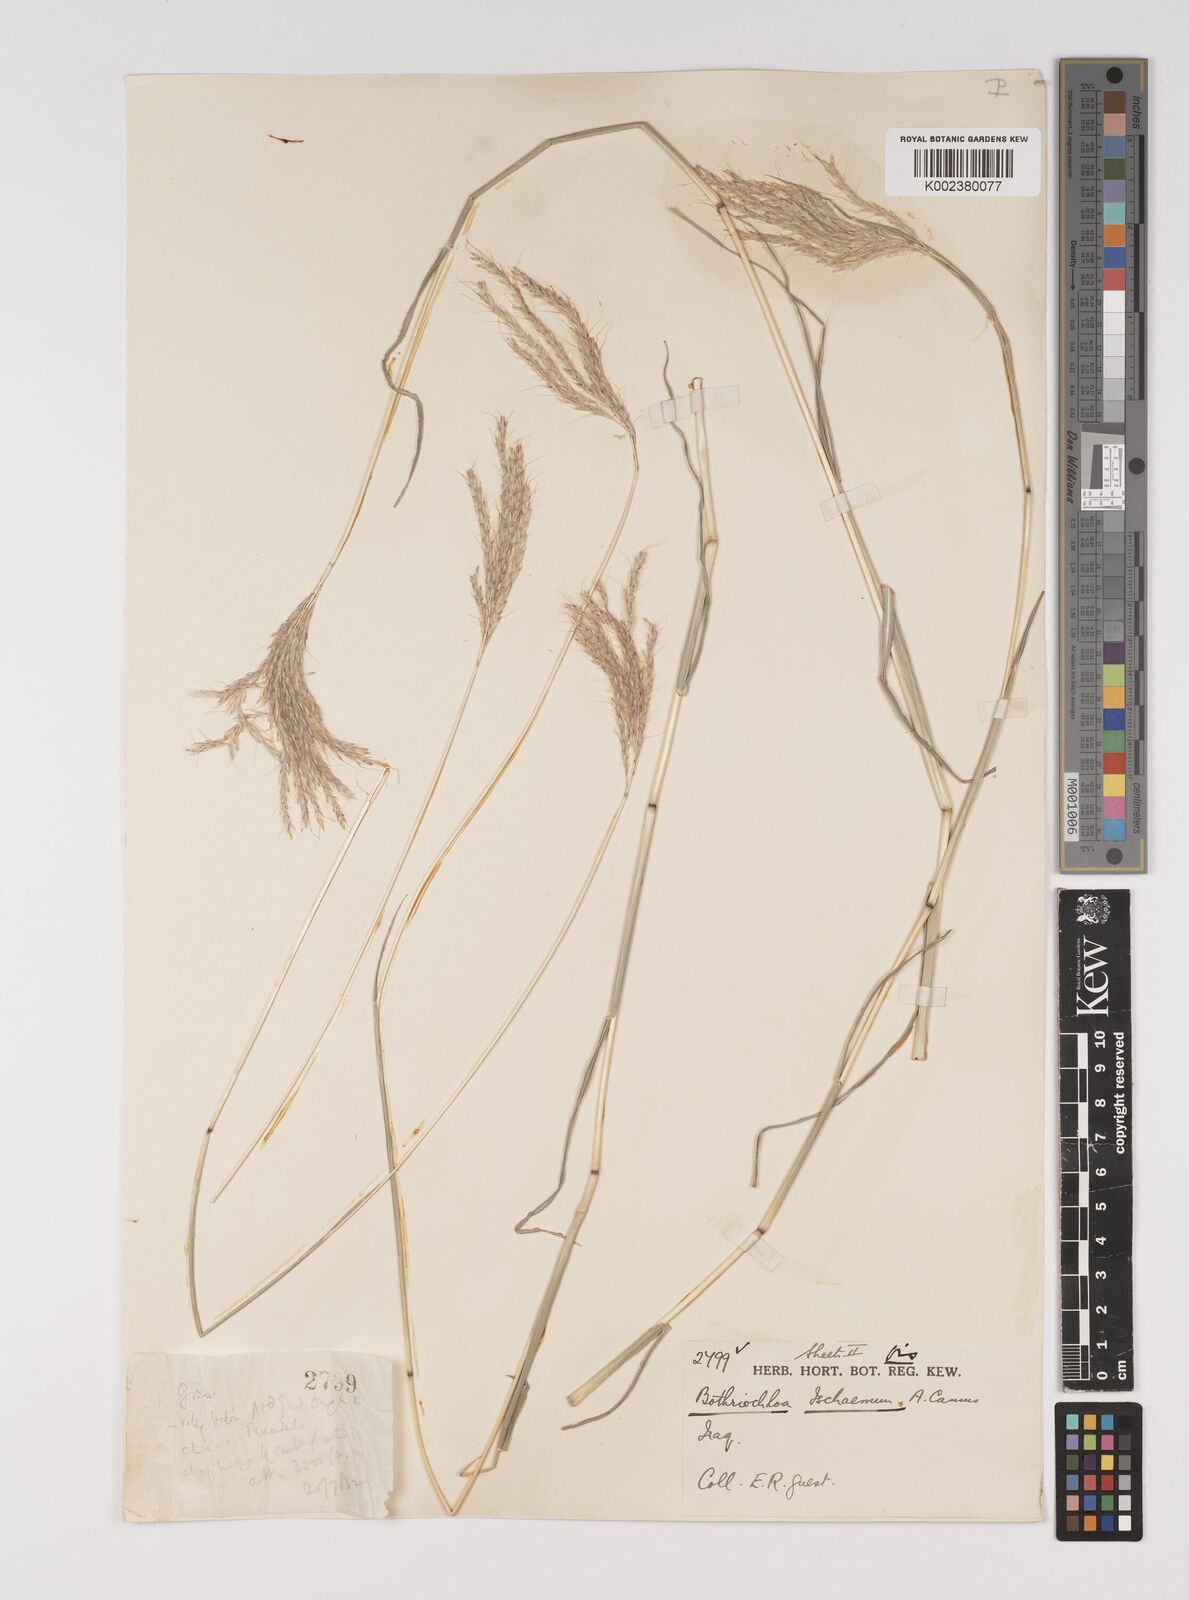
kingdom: Plantae
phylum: Tracheophyta
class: Liliopsida
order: Poales
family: Poaceae
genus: Bothriochloa
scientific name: Bothriochloa ischaemum
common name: Yellow bluestem
